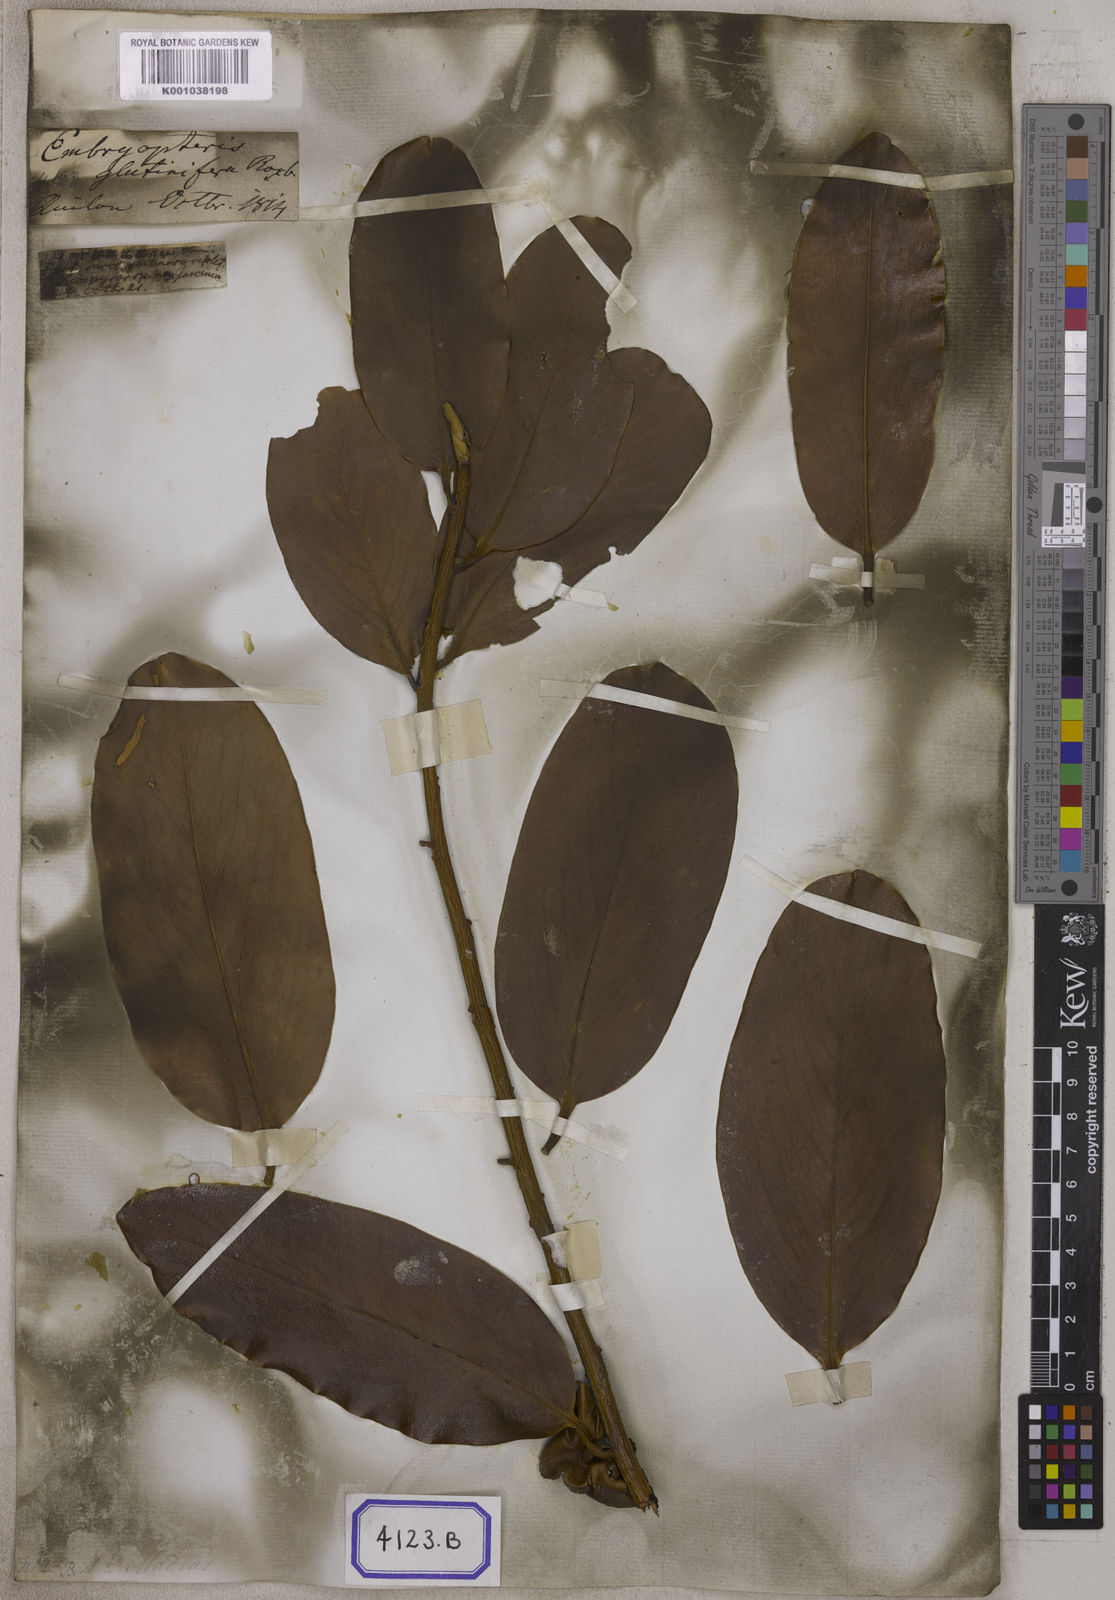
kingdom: Plantae
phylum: Tracheophyta
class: Magnoliopsida
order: Ericales
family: Ebenaceae
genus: Diospyros
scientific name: Diospyros malabarica
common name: Mountain ebony
